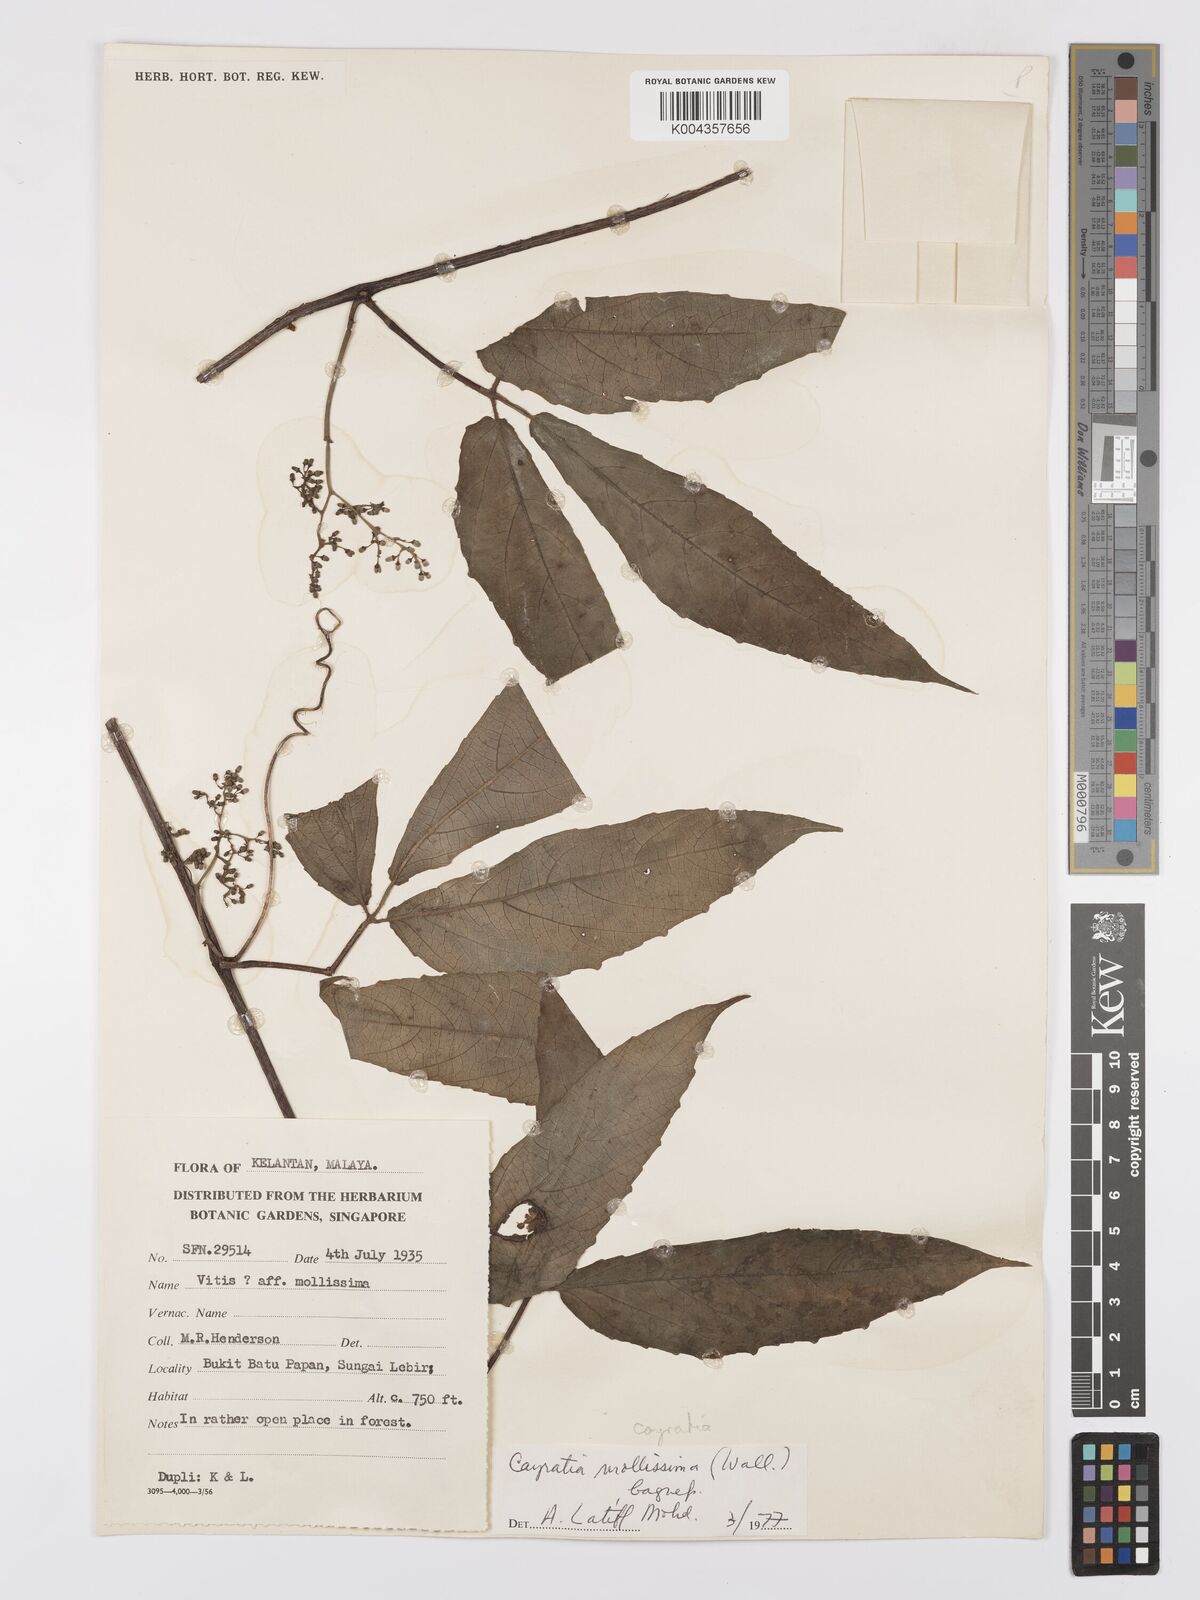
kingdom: Plantae
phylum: Tracheophyta
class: Magnoliopsida
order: Vitales
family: Vitaceae
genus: Cayratia
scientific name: Cayratia mollissima
